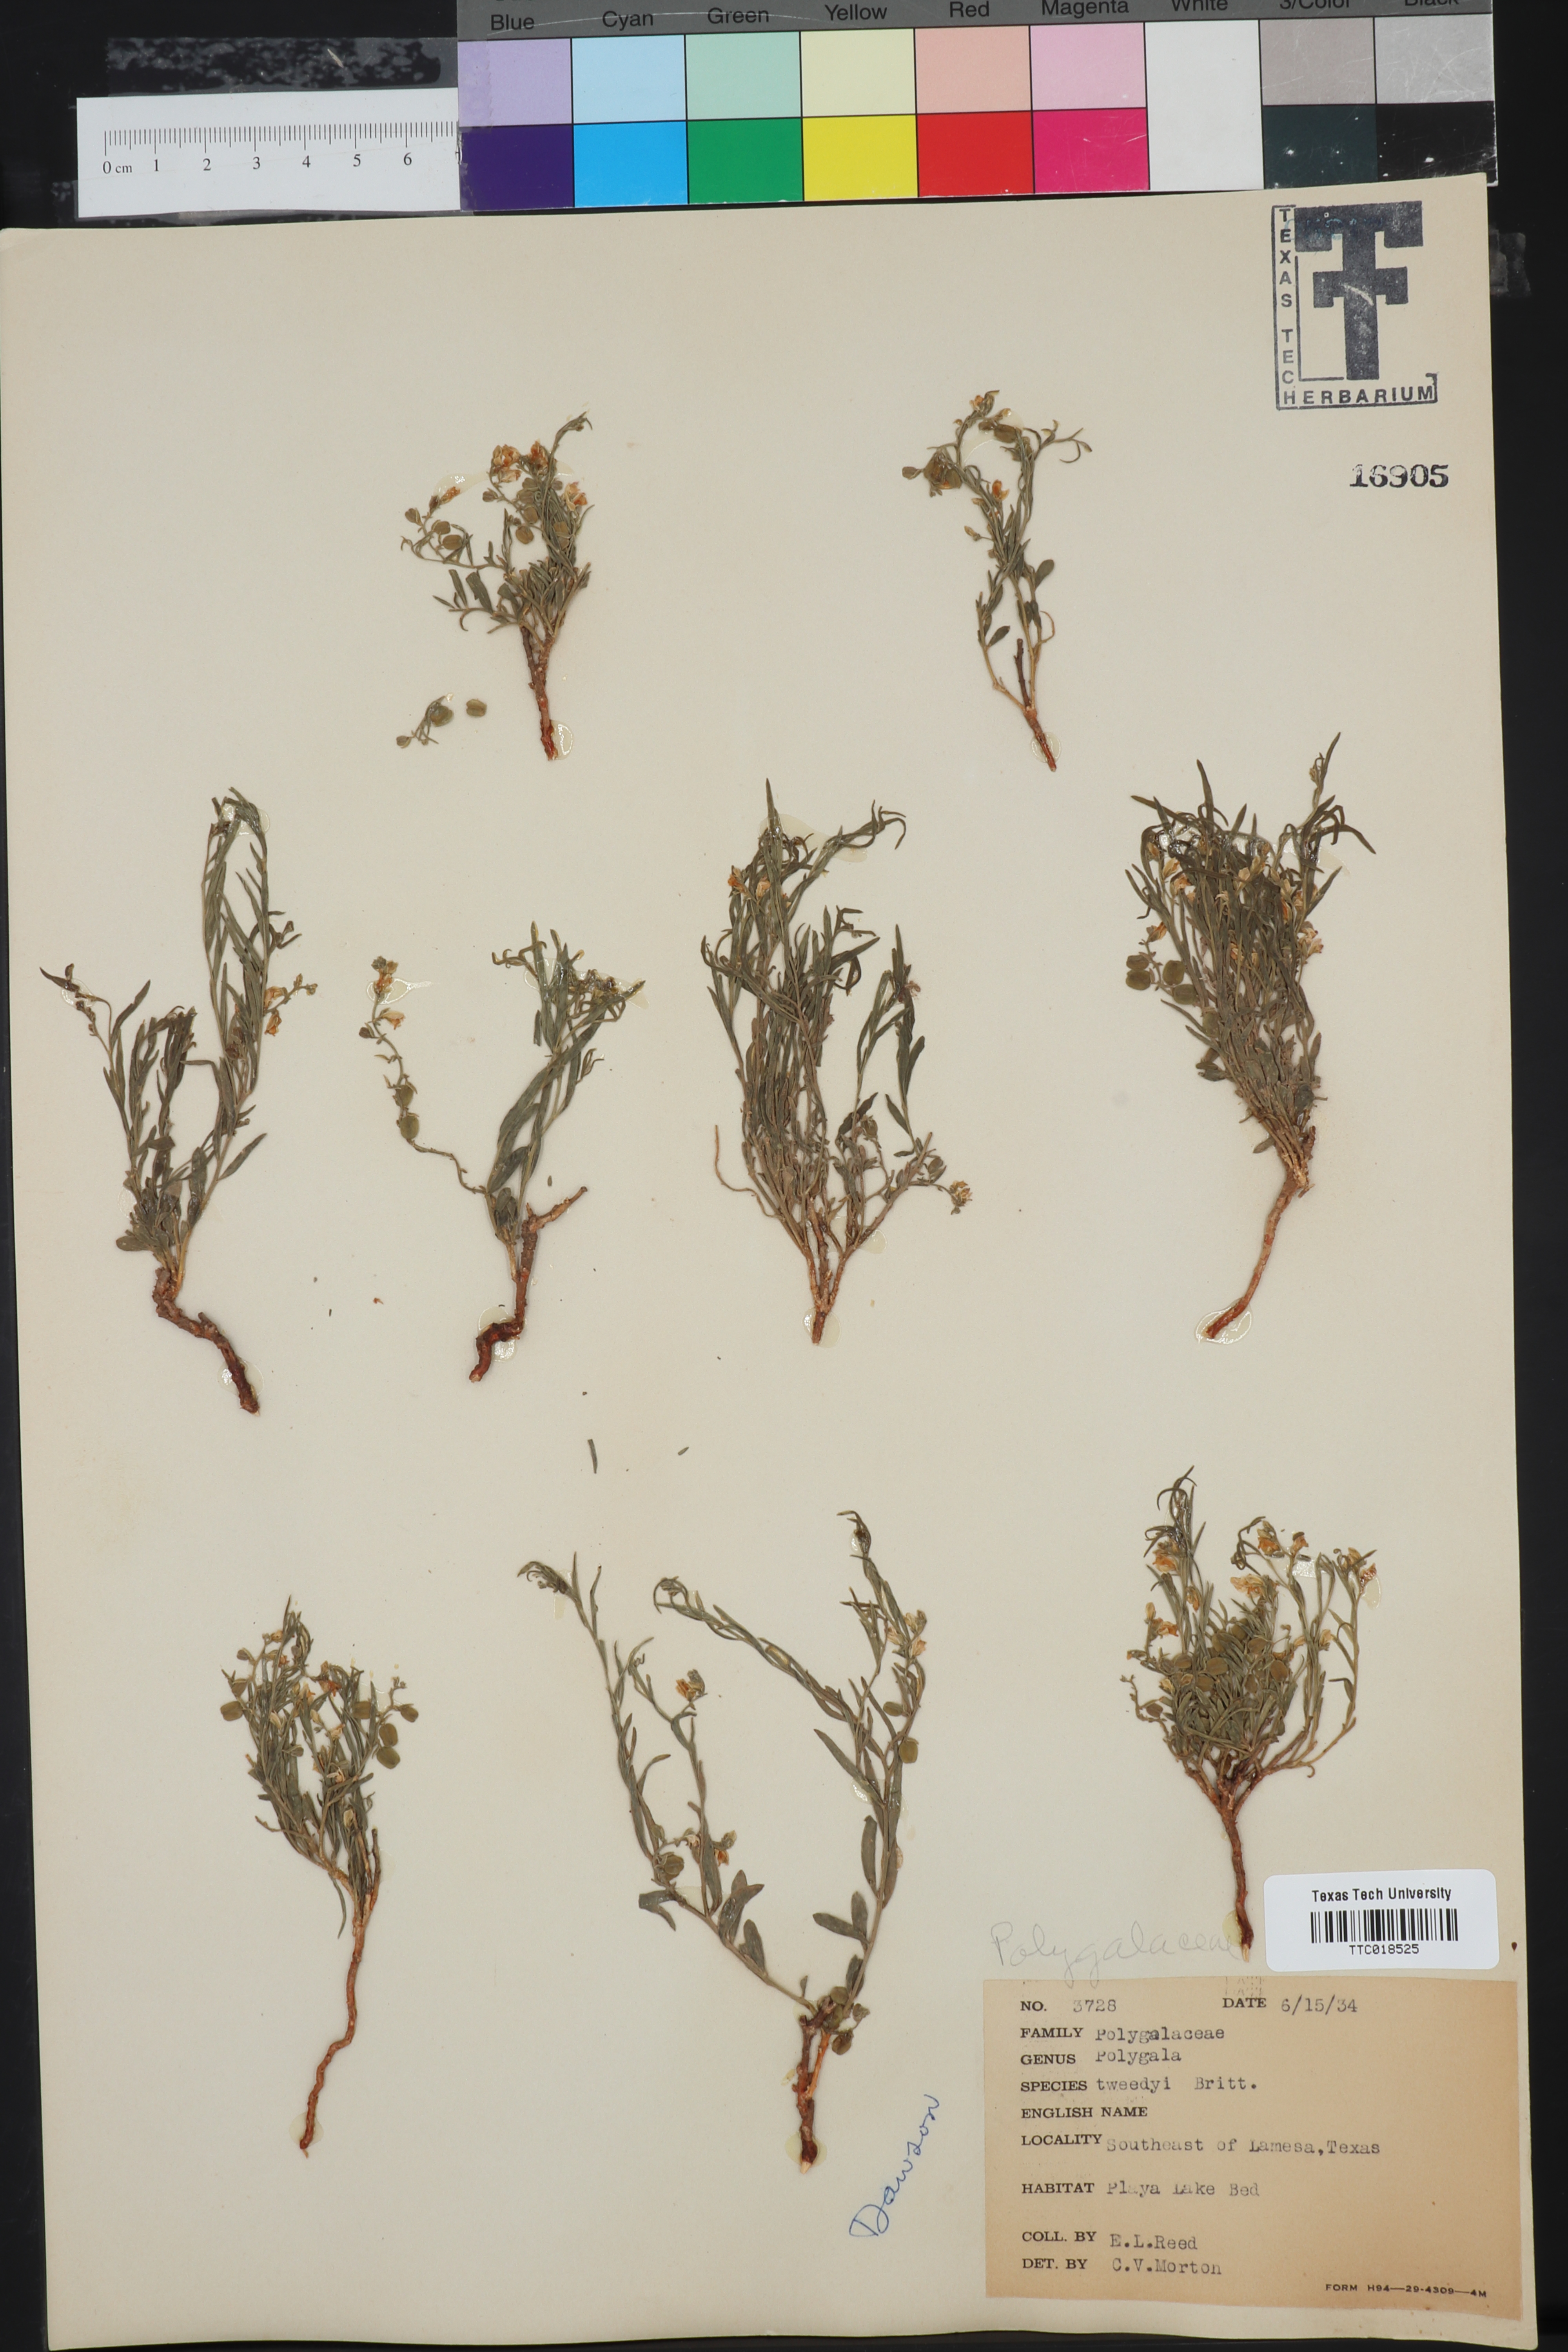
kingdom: Plantae
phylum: Tracheophyta
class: Magnoliopsida
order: Fabales
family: Polygalaceae
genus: Rhinotropis
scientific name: Rhinotropis lindheimeri
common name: Shrubby milkwort
